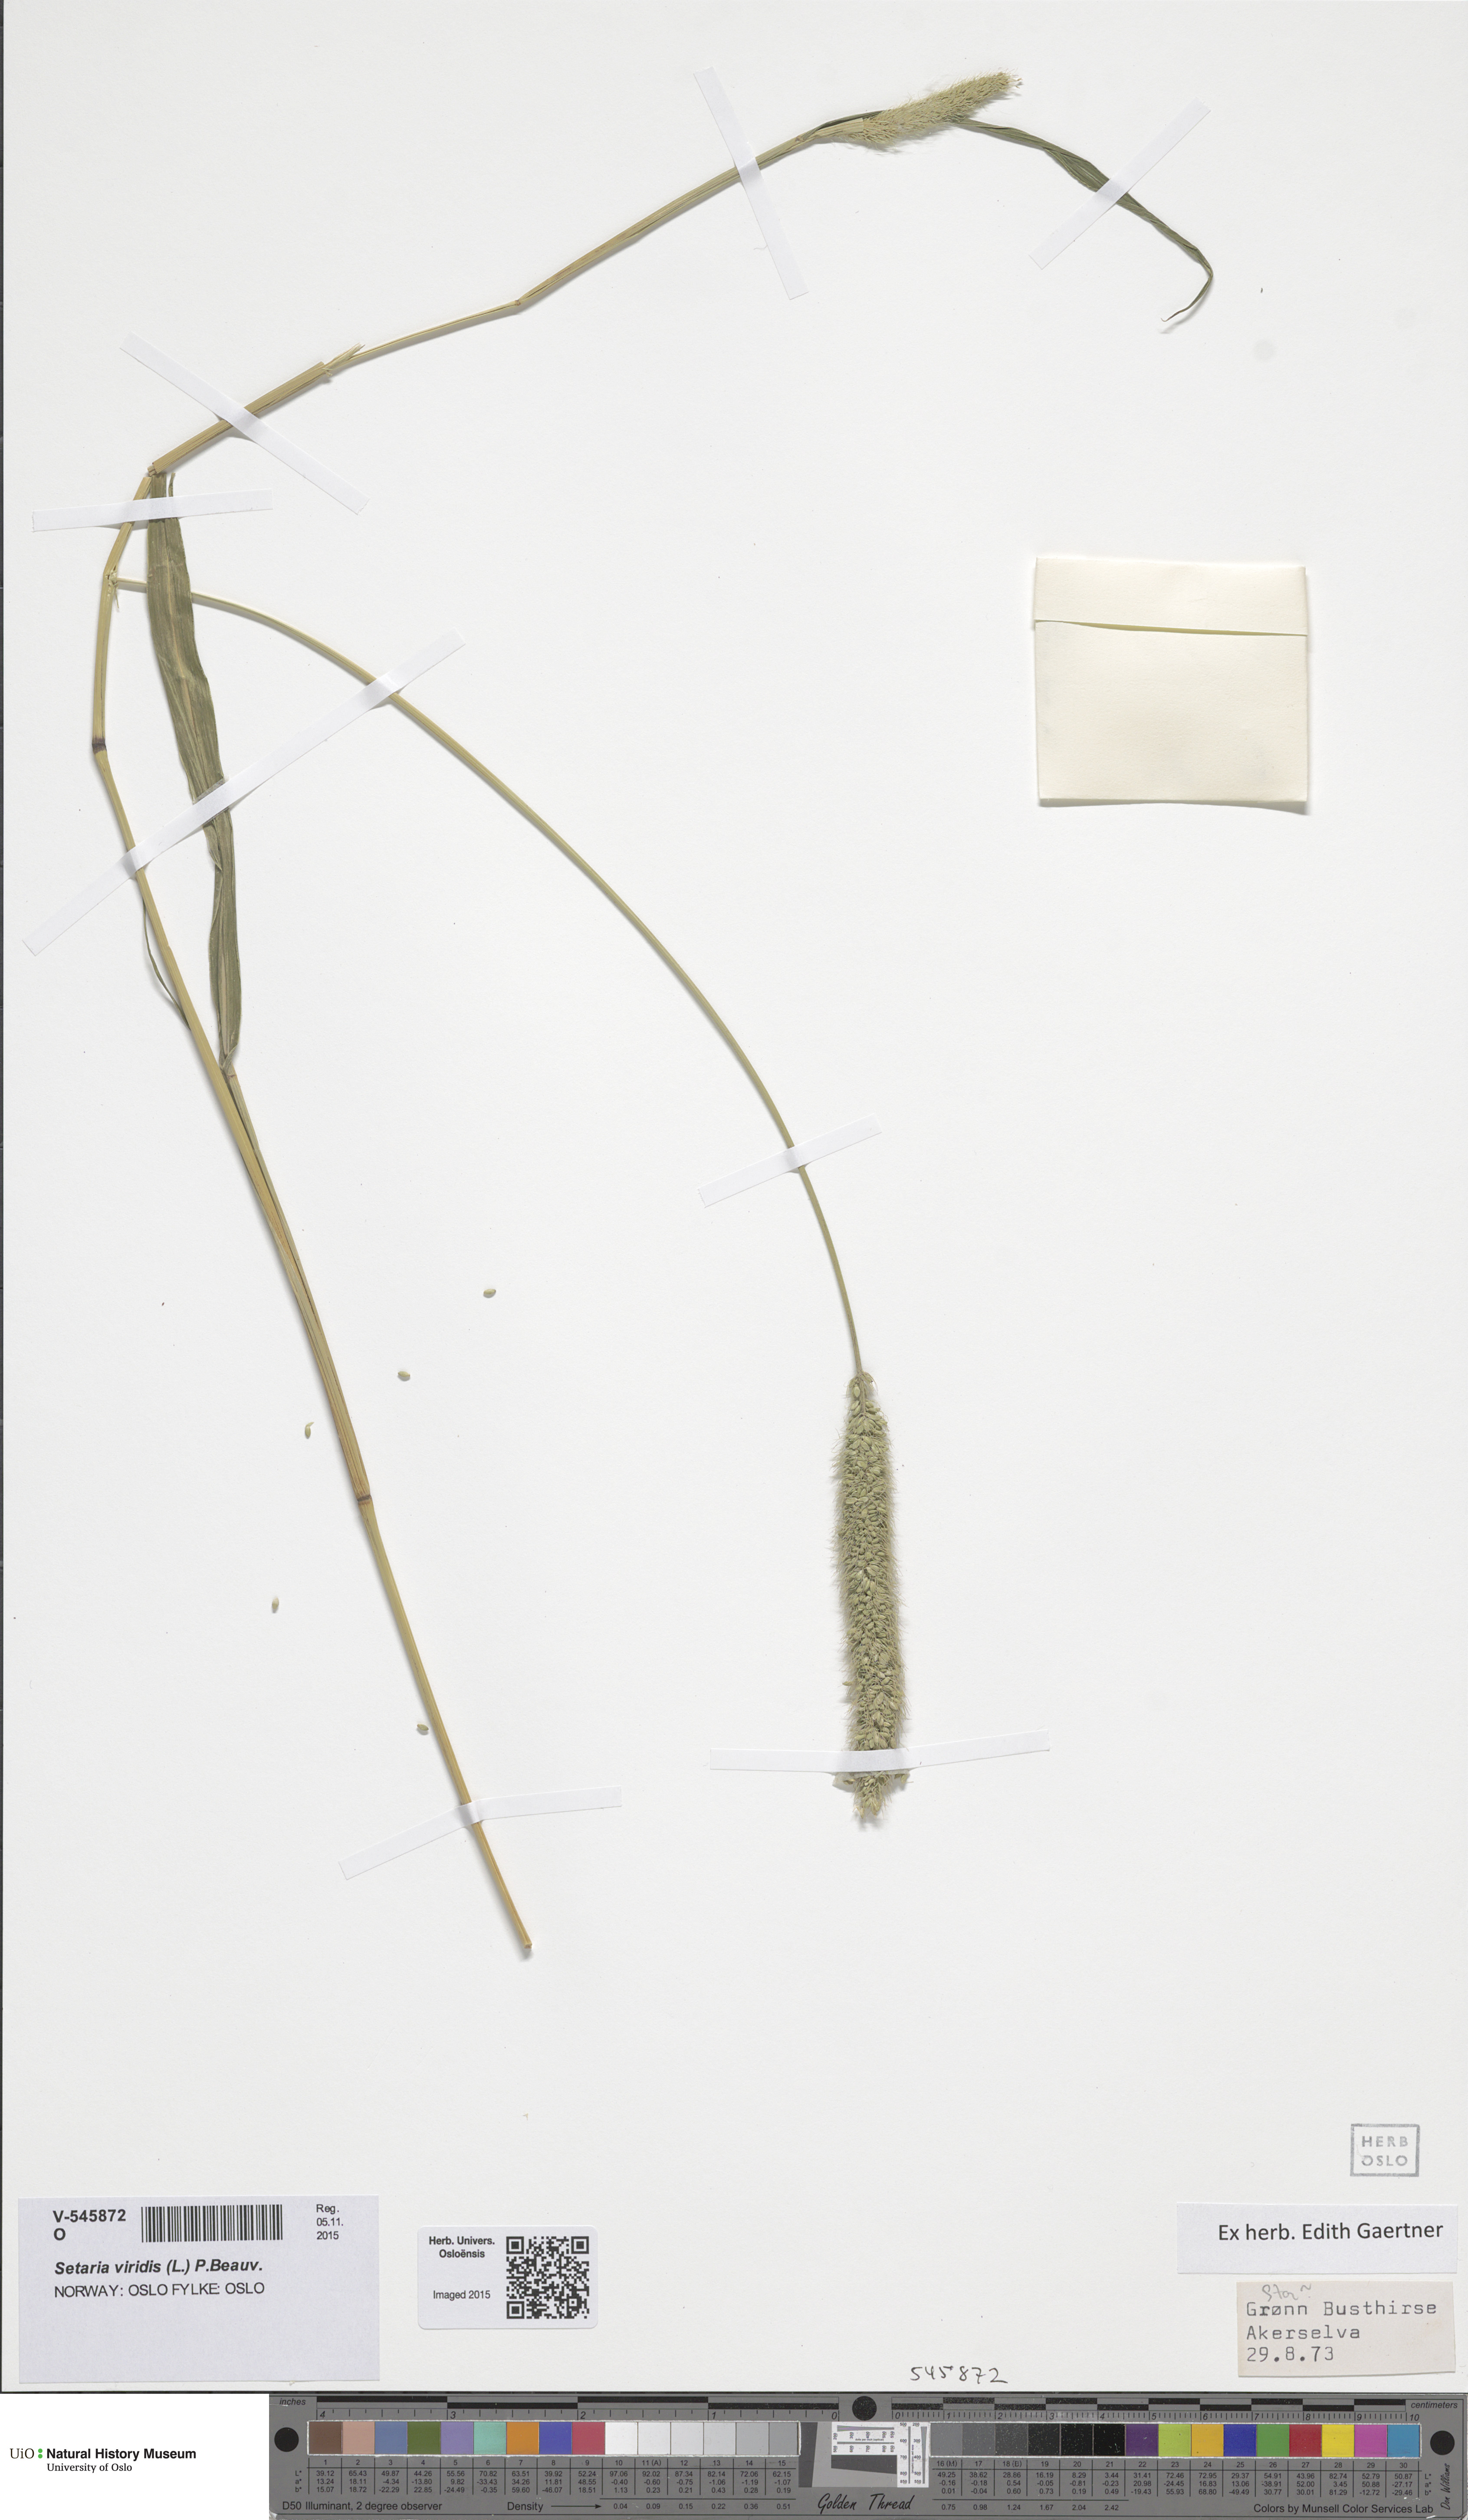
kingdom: Plantae
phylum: Tracheophyta
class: Liliopsida
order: Poales
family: Poaceae
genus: Setaria
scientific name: Setaria viridis
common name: Green bristlegrass
